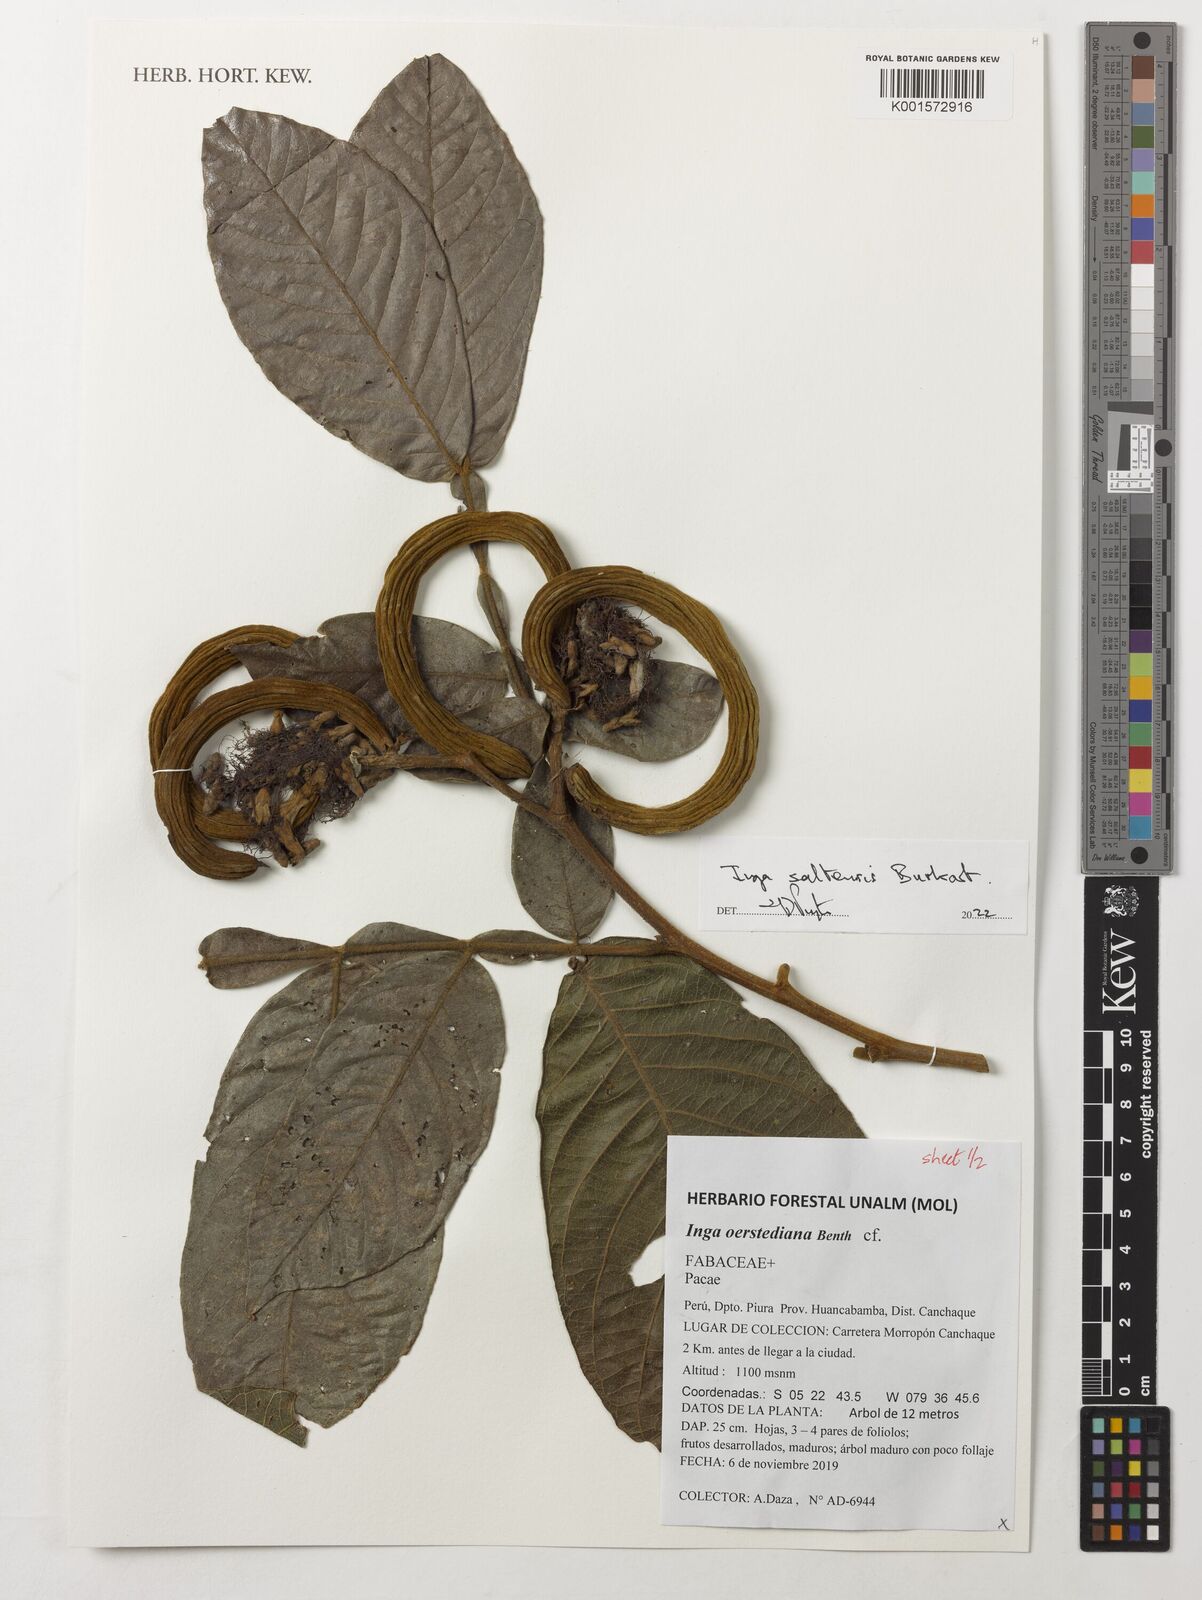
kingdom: Plantae
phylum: Tracheophyta
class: Magnoliopsida
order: Fabales
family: Fabaceae
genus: Inga
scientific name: Inga saltensis
